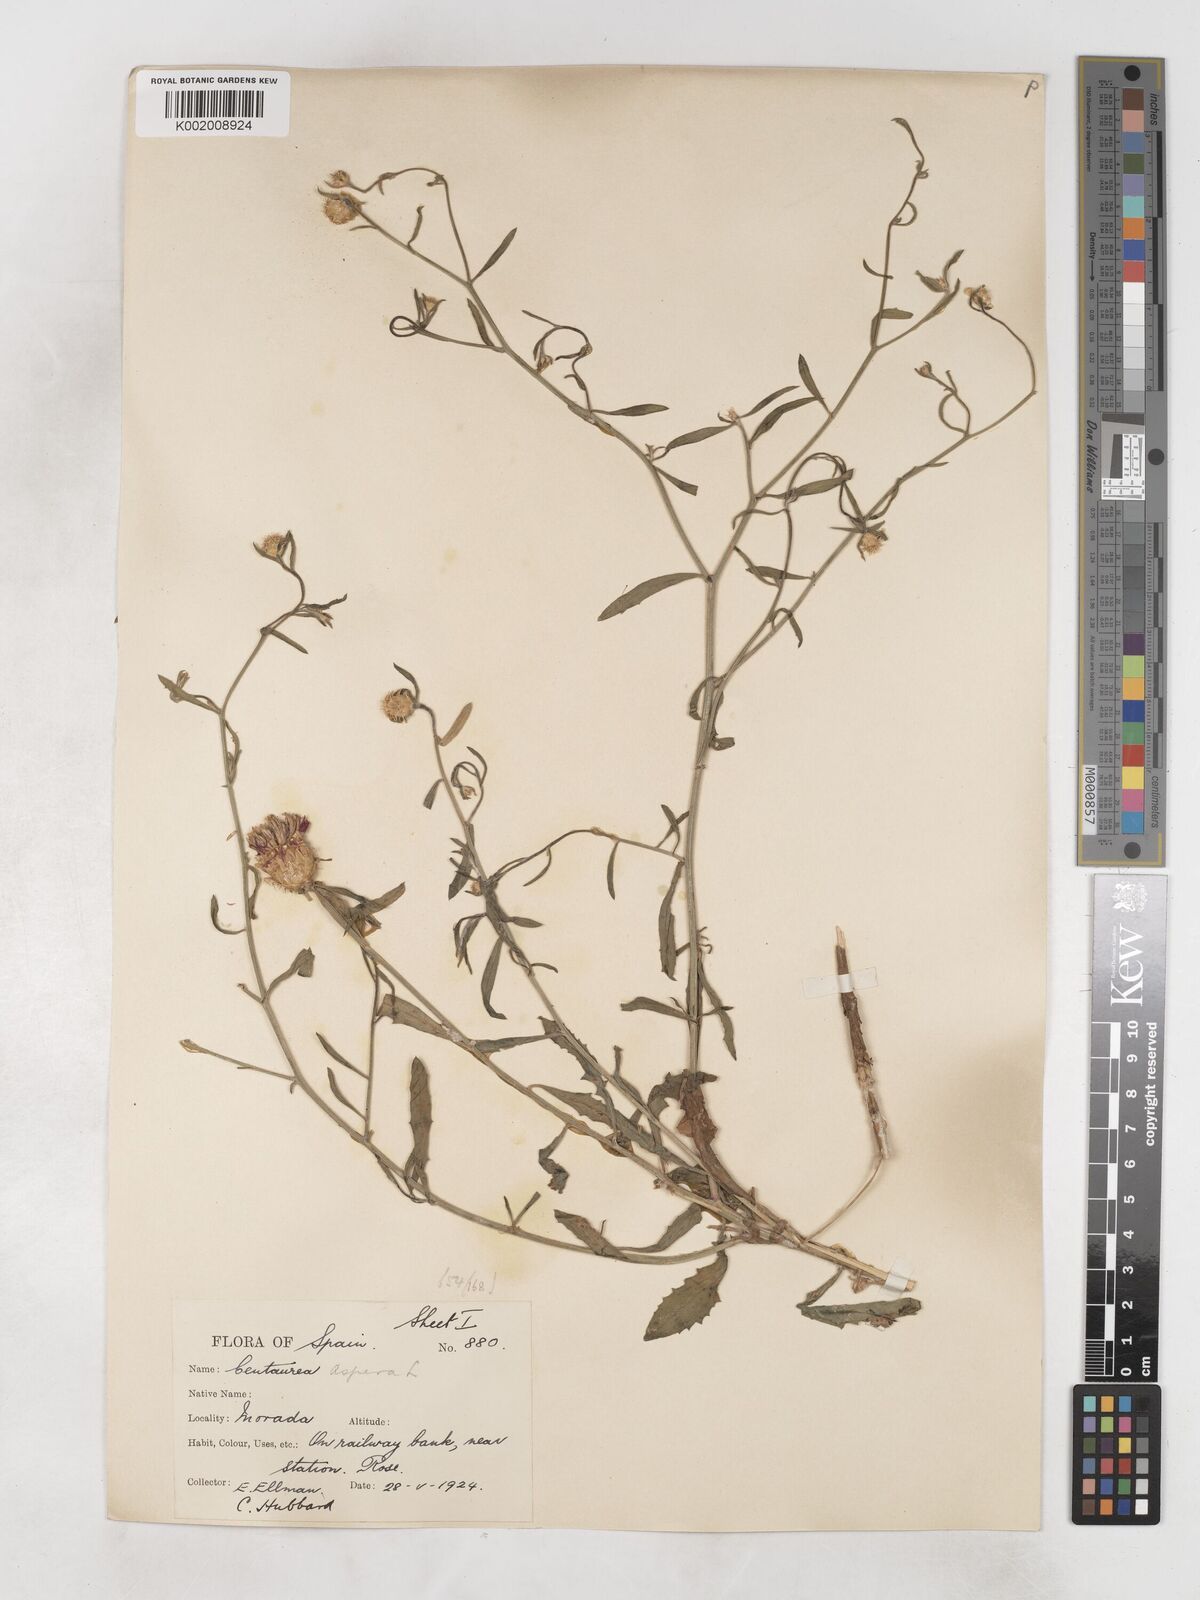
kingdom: Plantae
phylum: Tracheophyta
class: Magnoliopsida
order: Asterales
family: Asteraceae
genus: Centaurea
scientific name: Centaurea aspera
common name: Rough star-thistle
